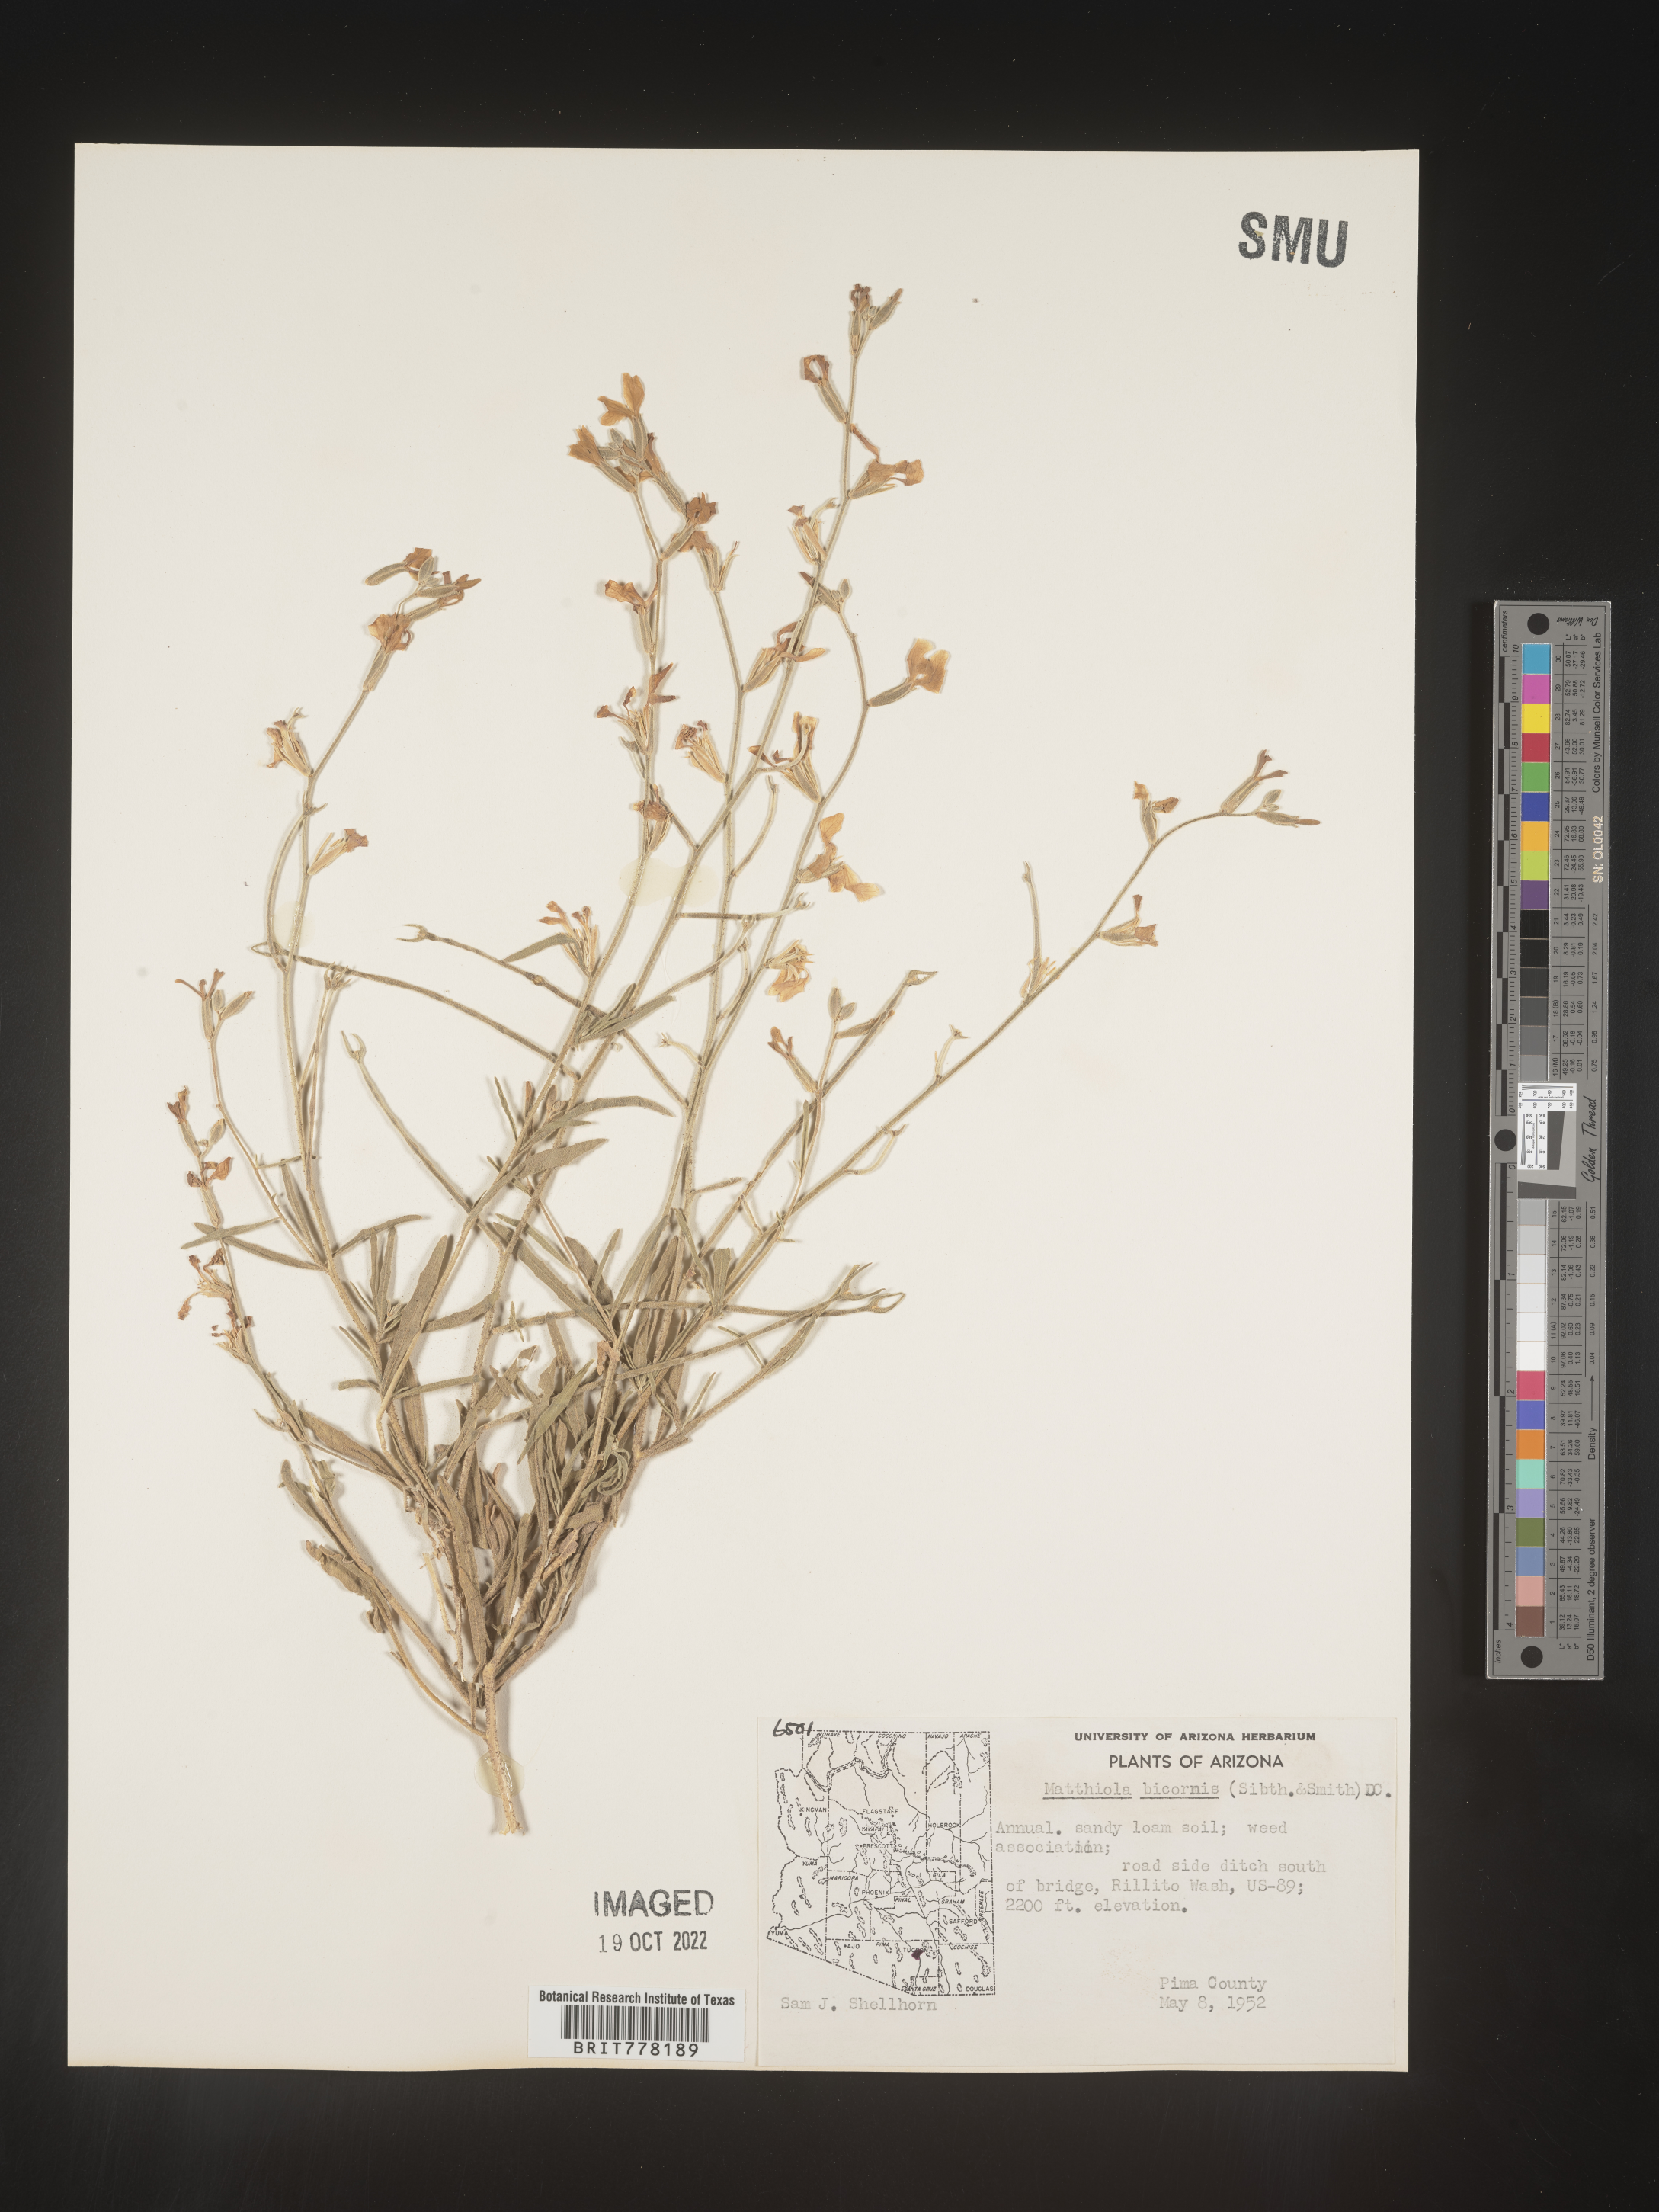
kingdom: Plantae
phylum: Tracheophyta
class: Magnoliopsida
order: Brassicales
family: Brassicaceae
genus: Matthiola
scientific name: Matthiola
